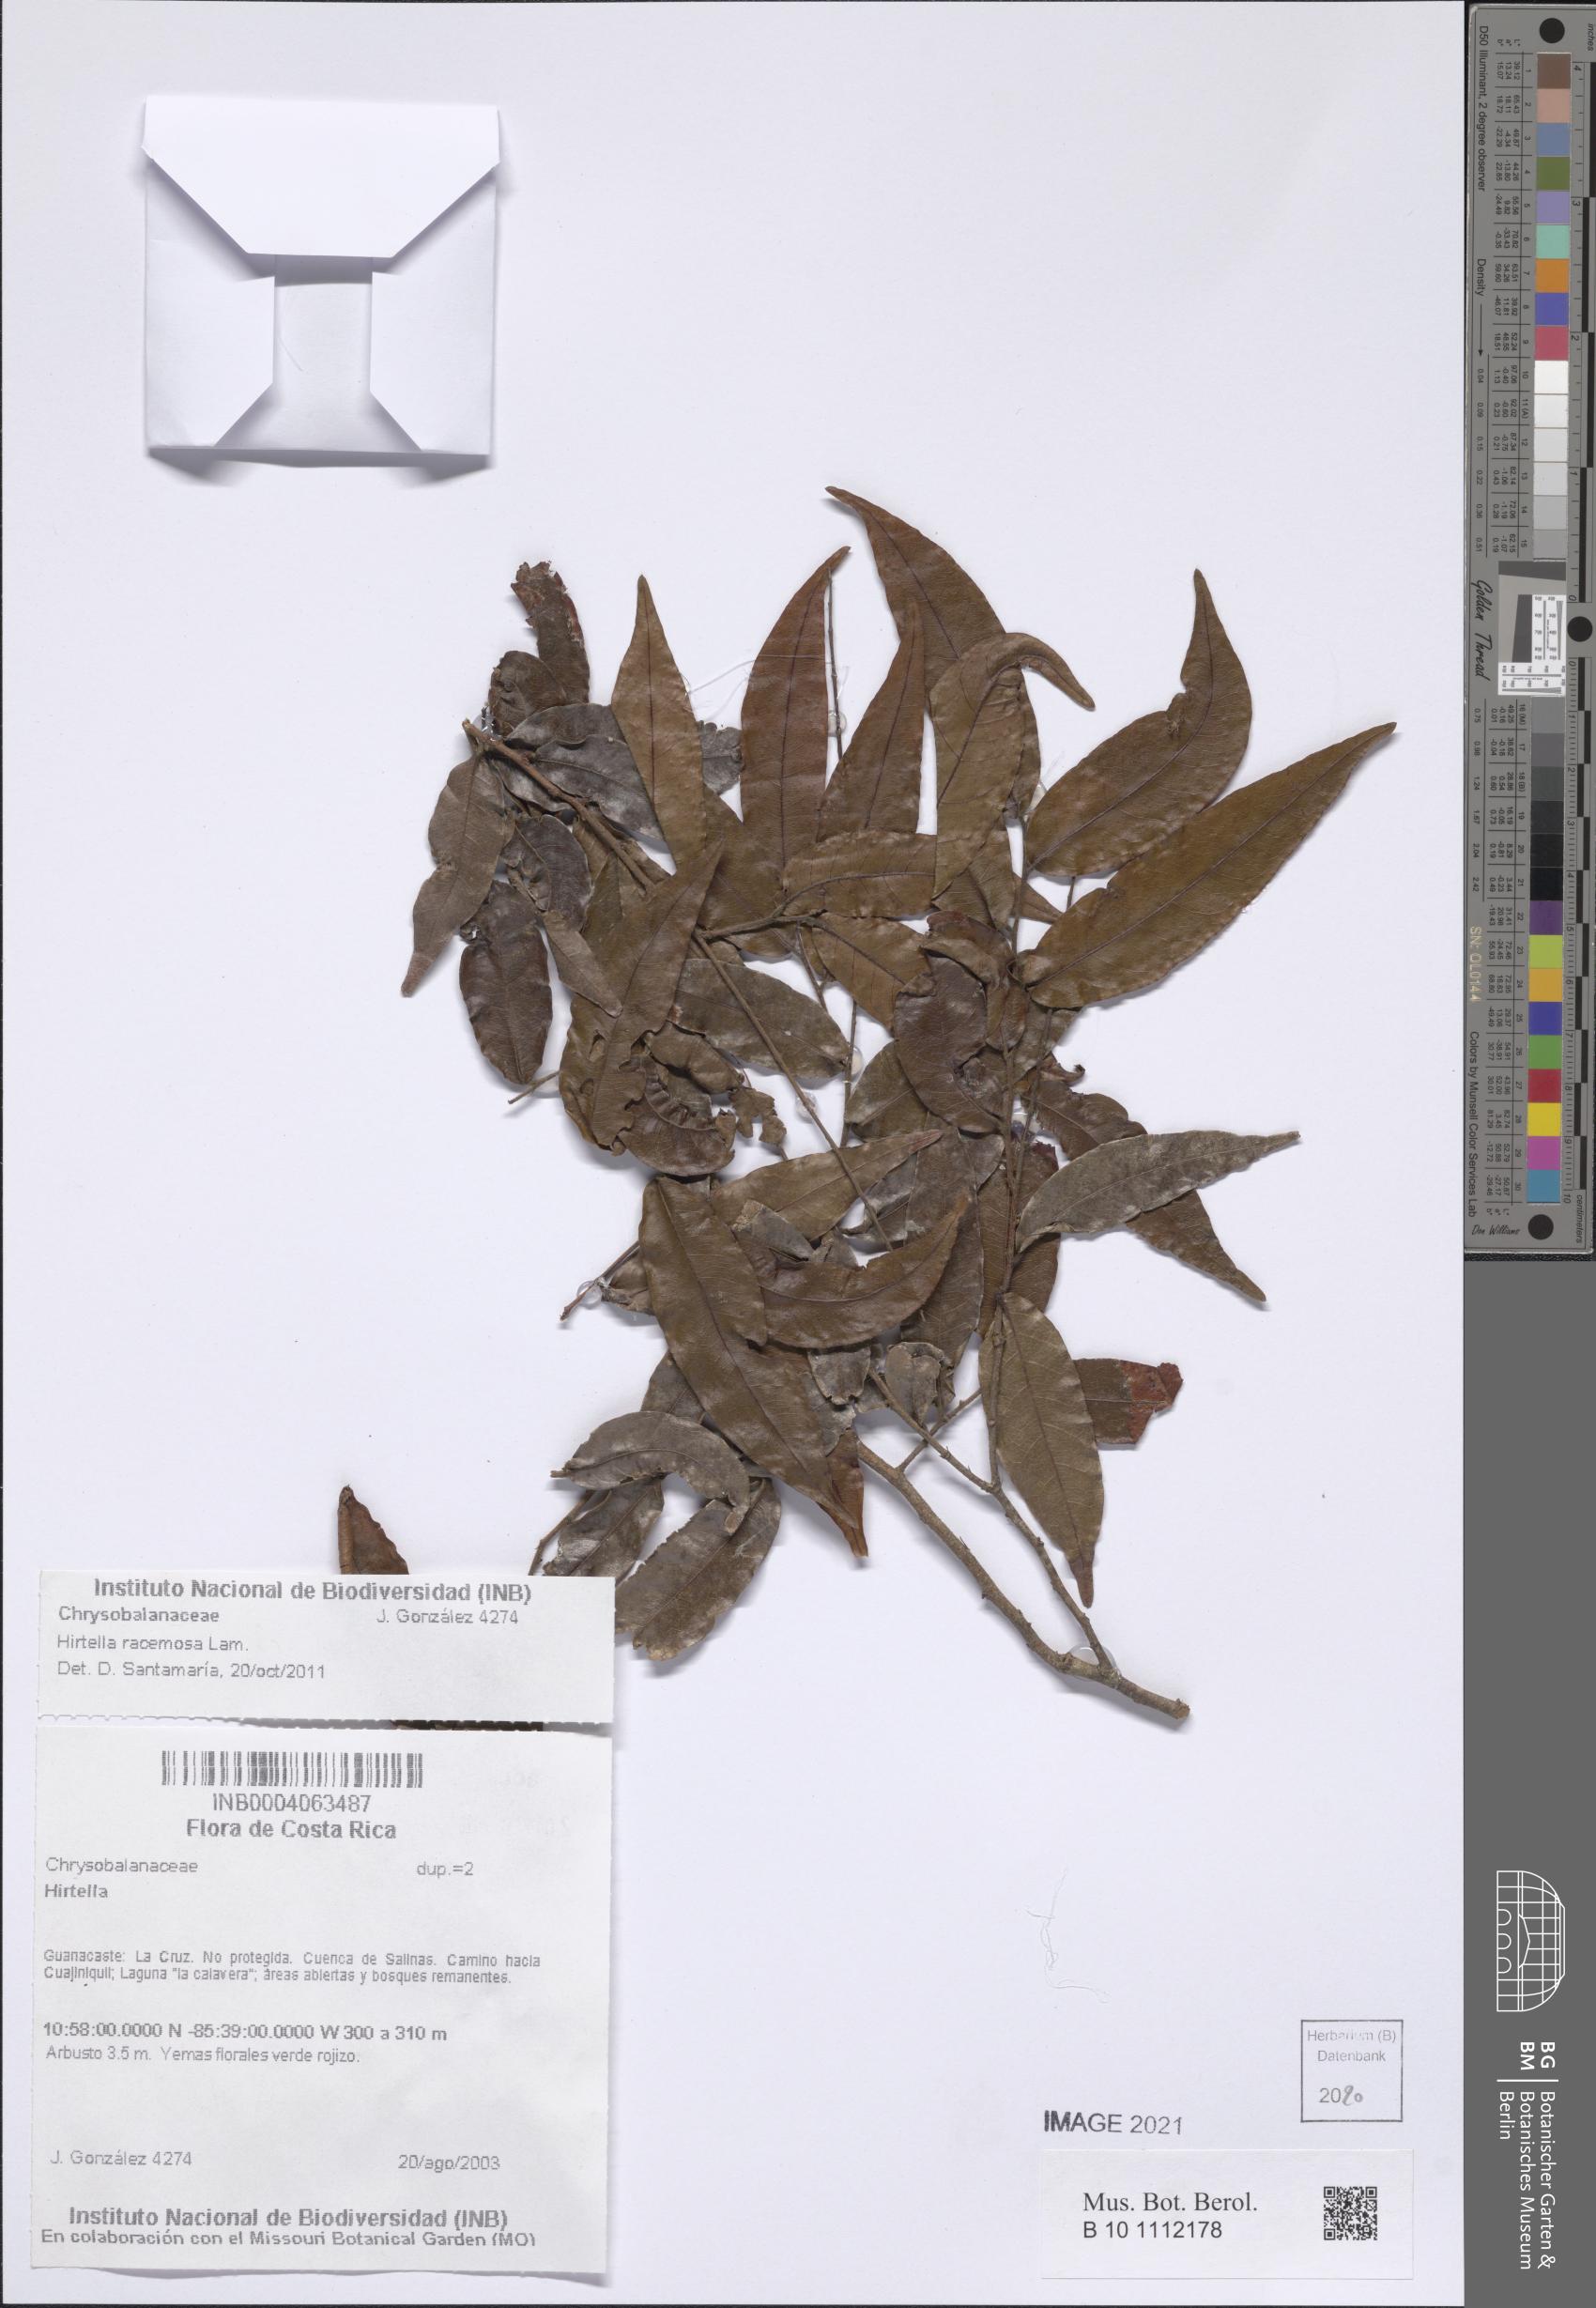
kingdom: Plantae
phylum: Tracheophyta
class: Magnoliopsida
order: Malpighiales
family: Chrysobalanaceae
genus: Hirtella
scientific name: Hirtella racemosa
